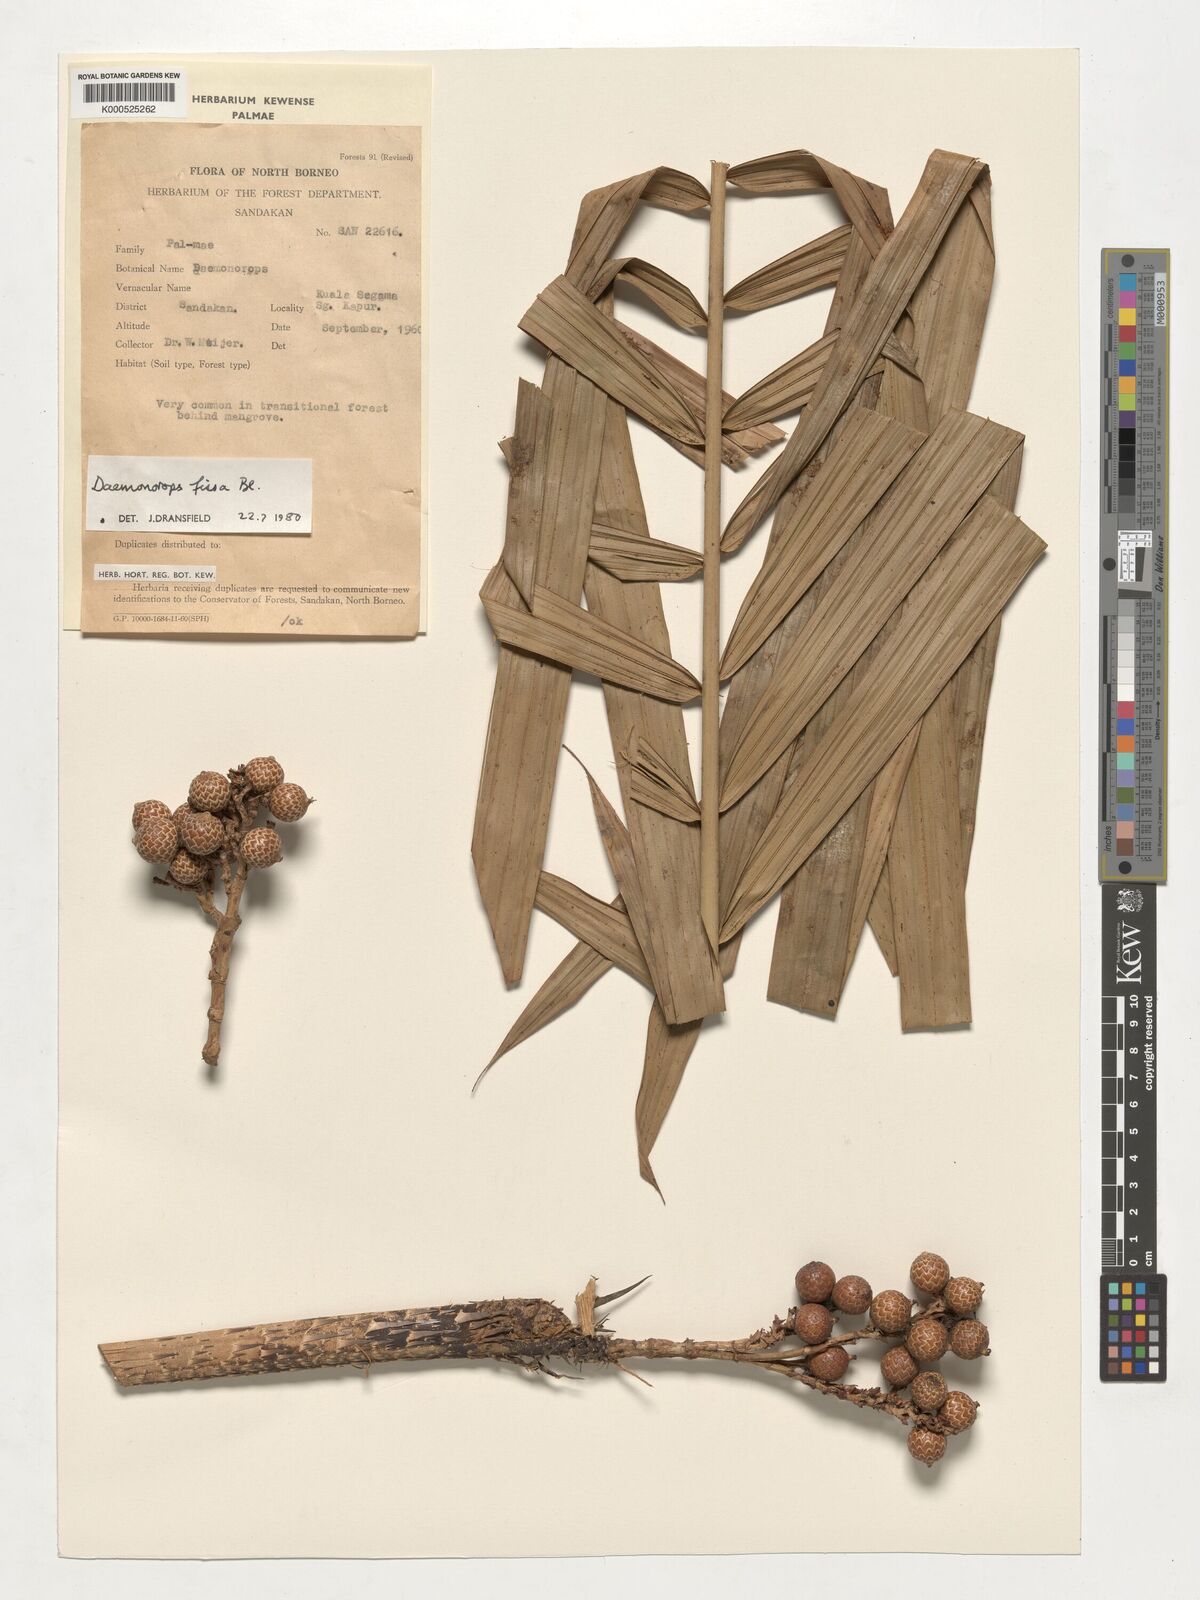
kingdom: Plantae
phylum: Tracheophyta
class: Liliopsida
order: Arecales
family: Arecaceae
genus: Calamus
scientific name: Calamus melanochaetes
